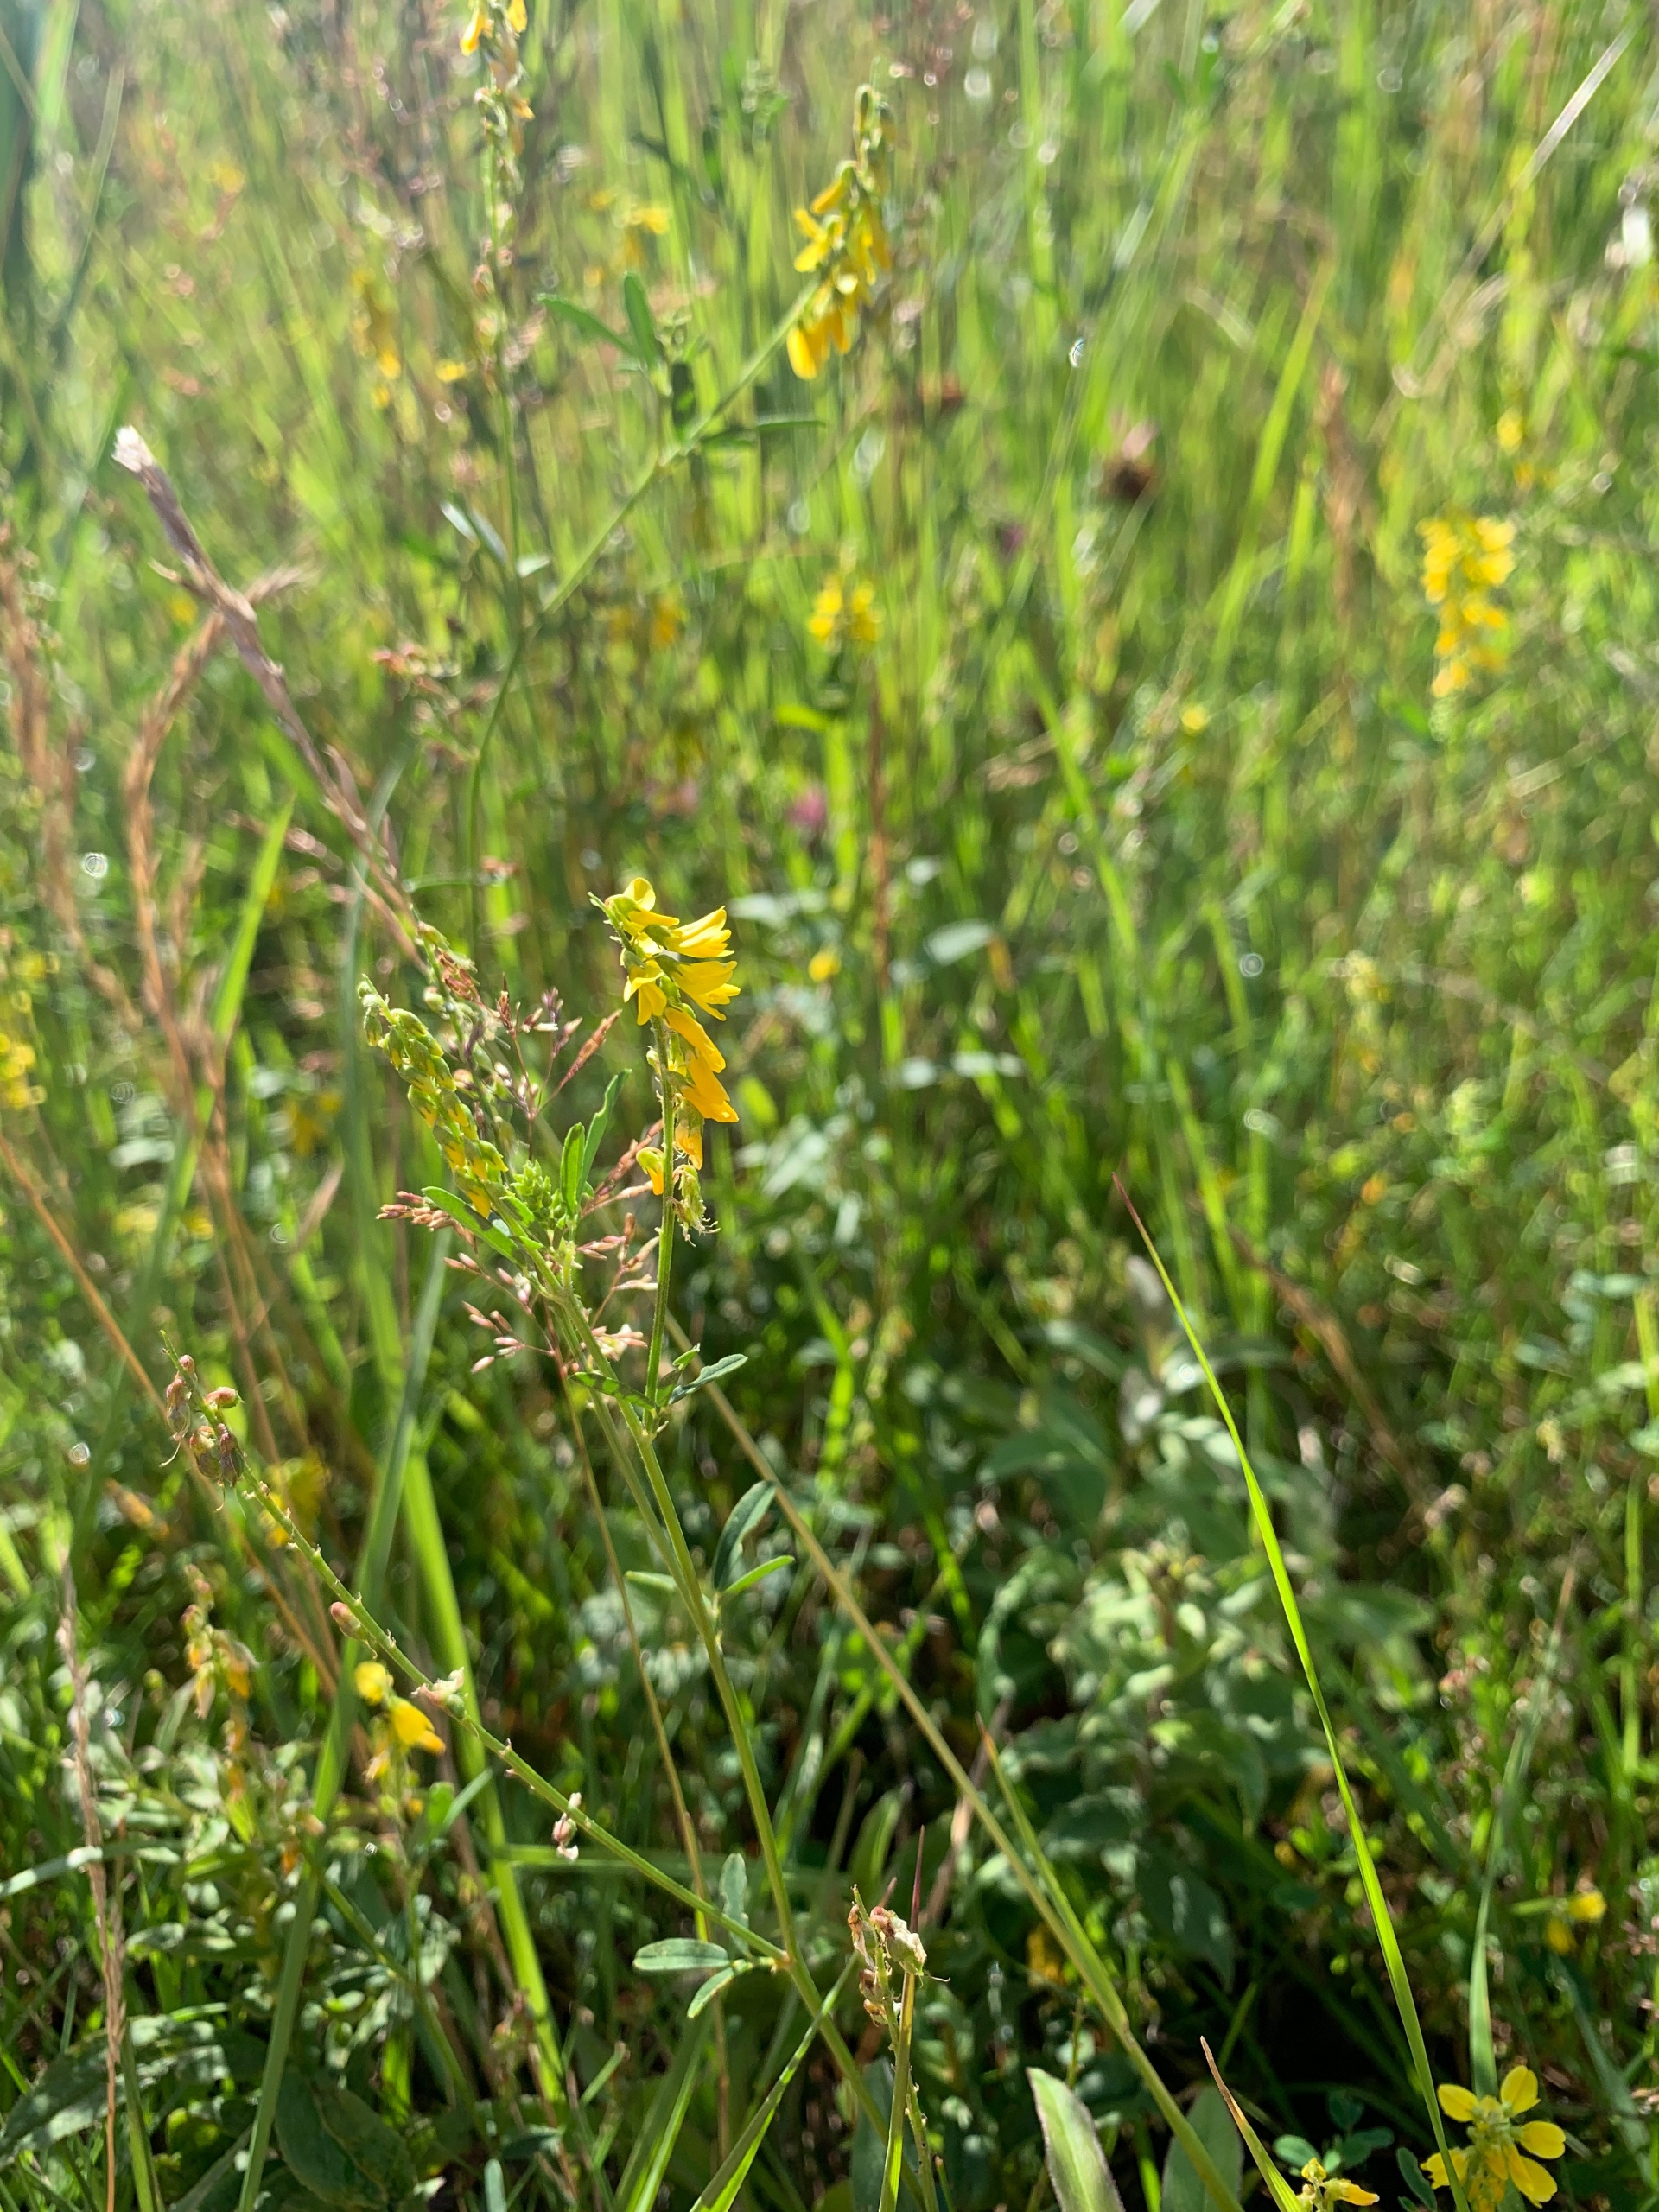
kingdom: Plantae
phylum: Tracheophyta
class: Magnoliopsida
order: Fabales
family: Fabaceae
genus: Melilotus
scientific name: Melilotus altissimus
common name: Høj stenkløver
